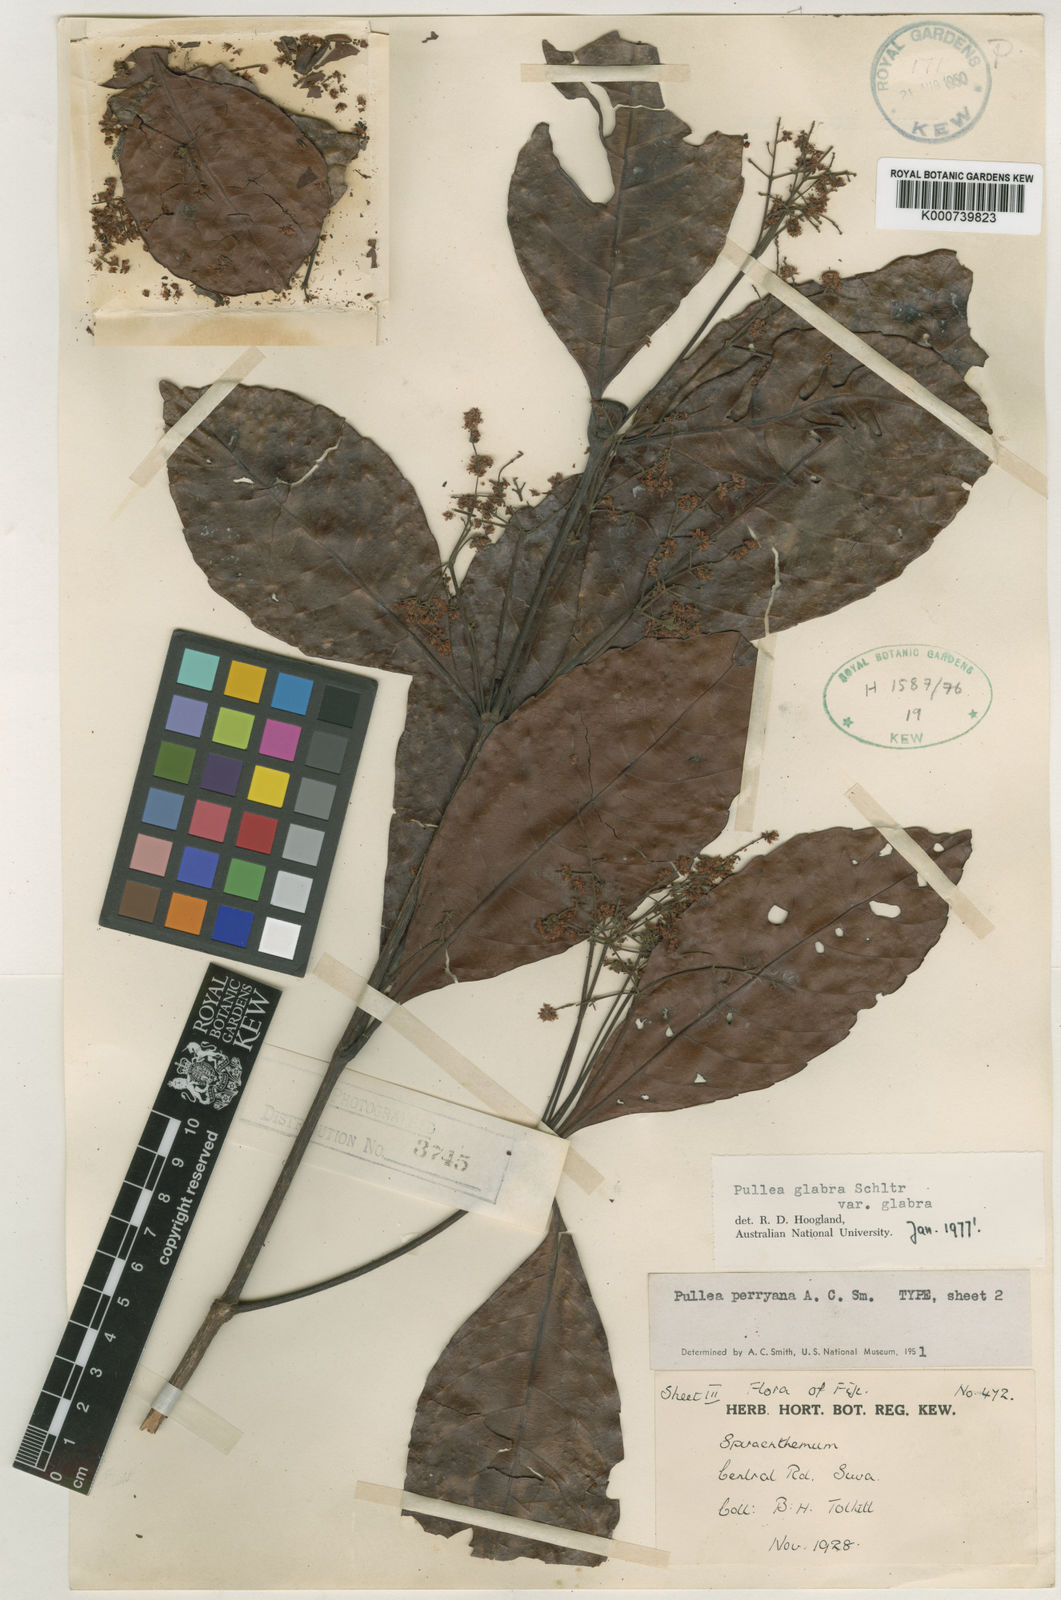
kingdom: Plantae
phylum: Tracheophyta
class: Magnoliopsida
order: Oxalidales
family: Cunoniaceae
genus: Pullea
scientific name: Pullea glabra
